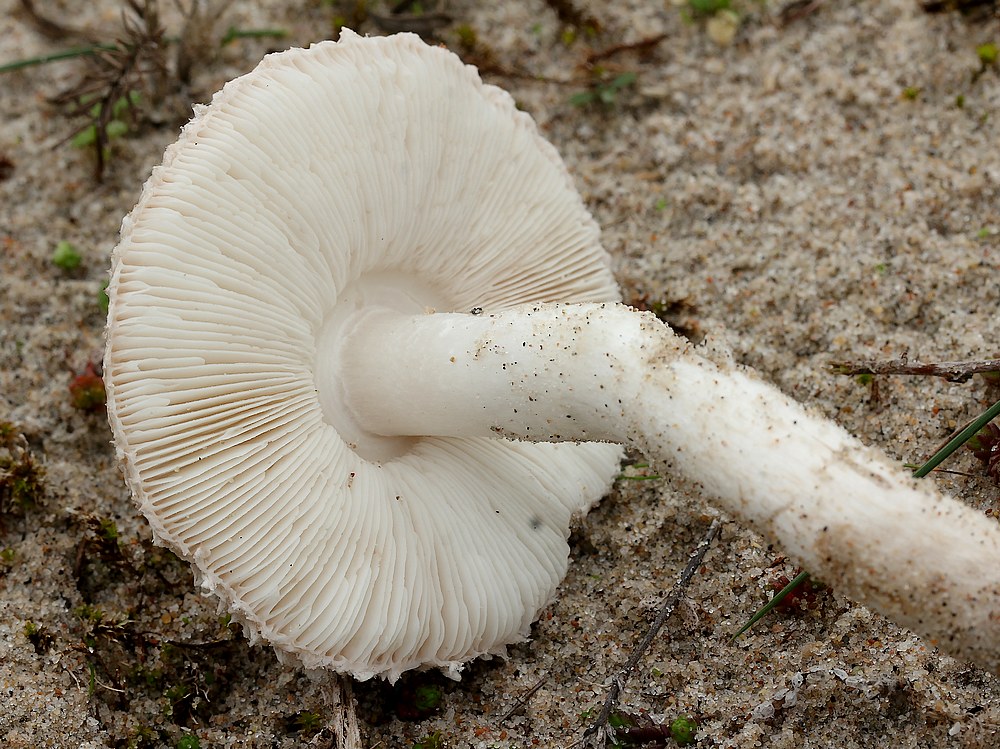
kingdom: Fungi
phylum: Basidiomycota
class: Agaricomycetes
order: Agaricales
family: Agaricaceae
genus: Leucoagaricus
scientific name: Leucoagaricus barssii
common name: gråfibret silkehat
